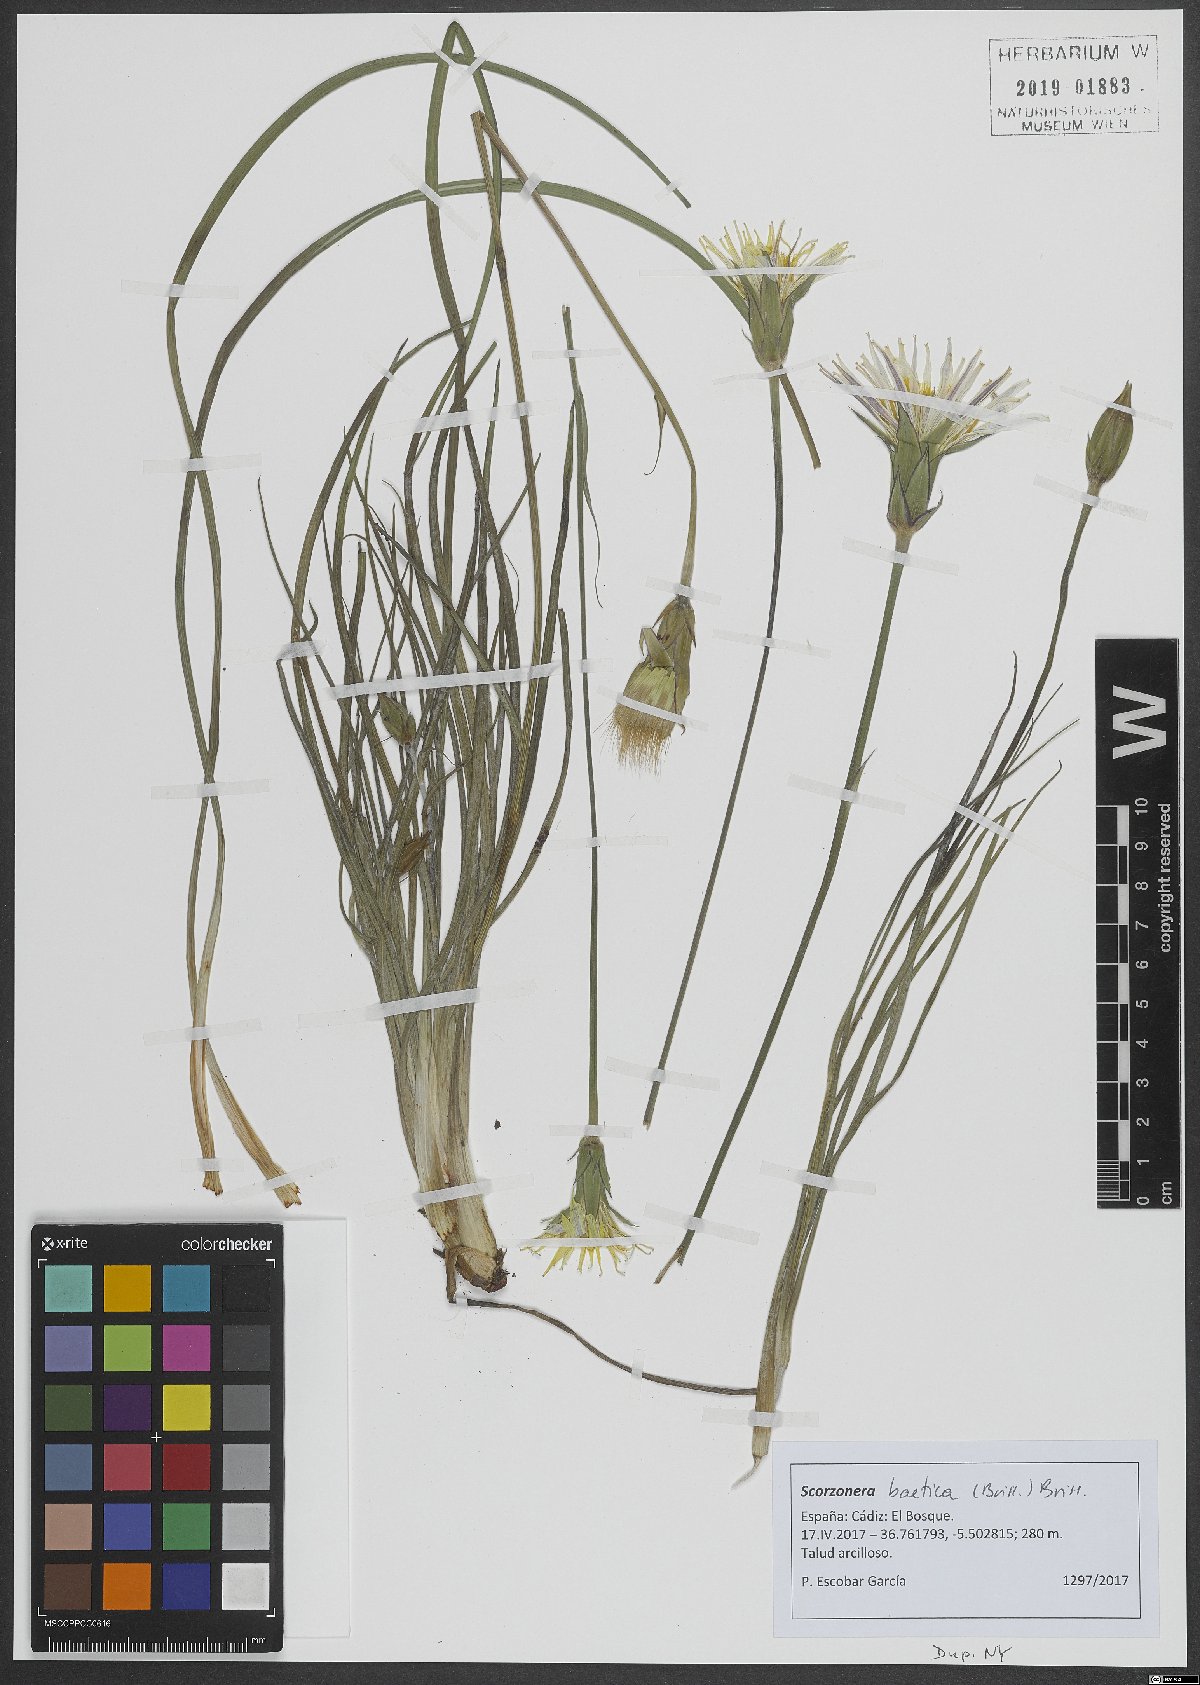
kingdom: Plantae
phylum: Tracheophyta
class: Magnoliopsida
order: Asterales
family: Asteraceae
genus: Scorzonera
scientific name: Scorzonera baetica
